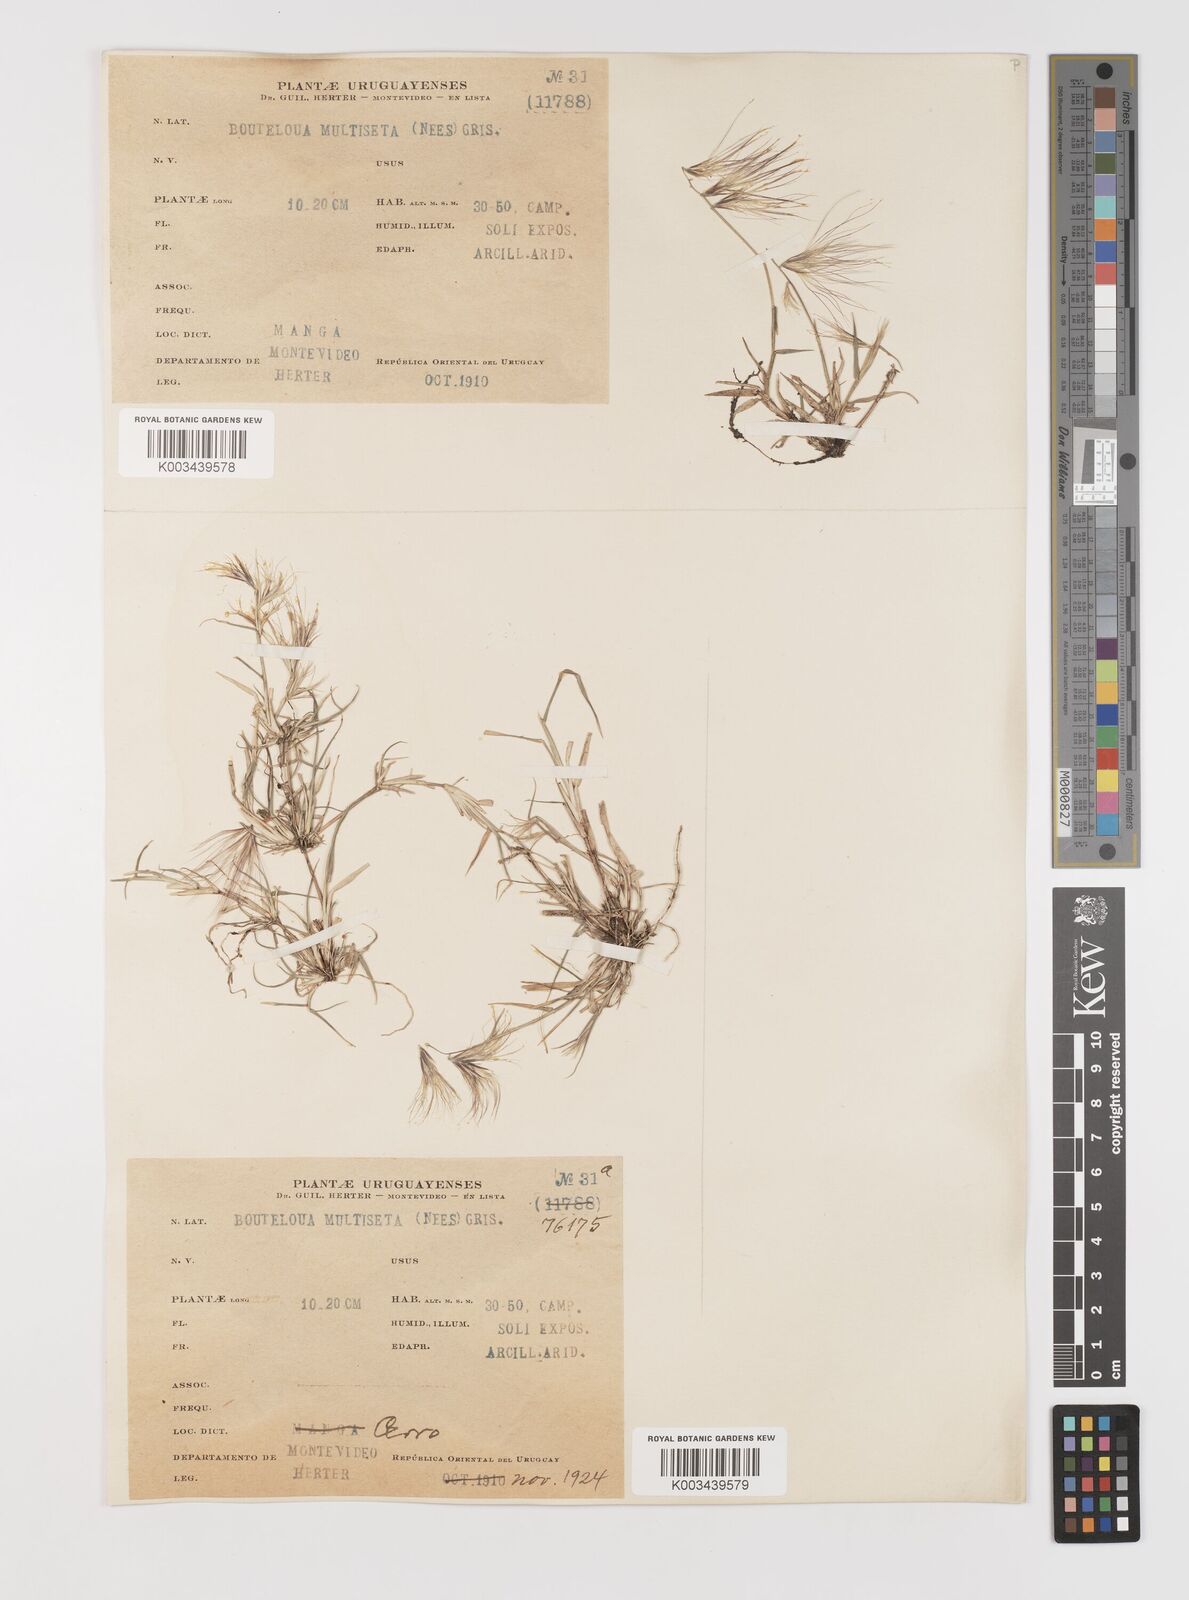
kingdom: Plantae
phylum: Tracheophyta
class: Liliopsida
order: Poales
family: Poaceae
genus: Bouteloua
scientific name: Bouteloua megapotamica
